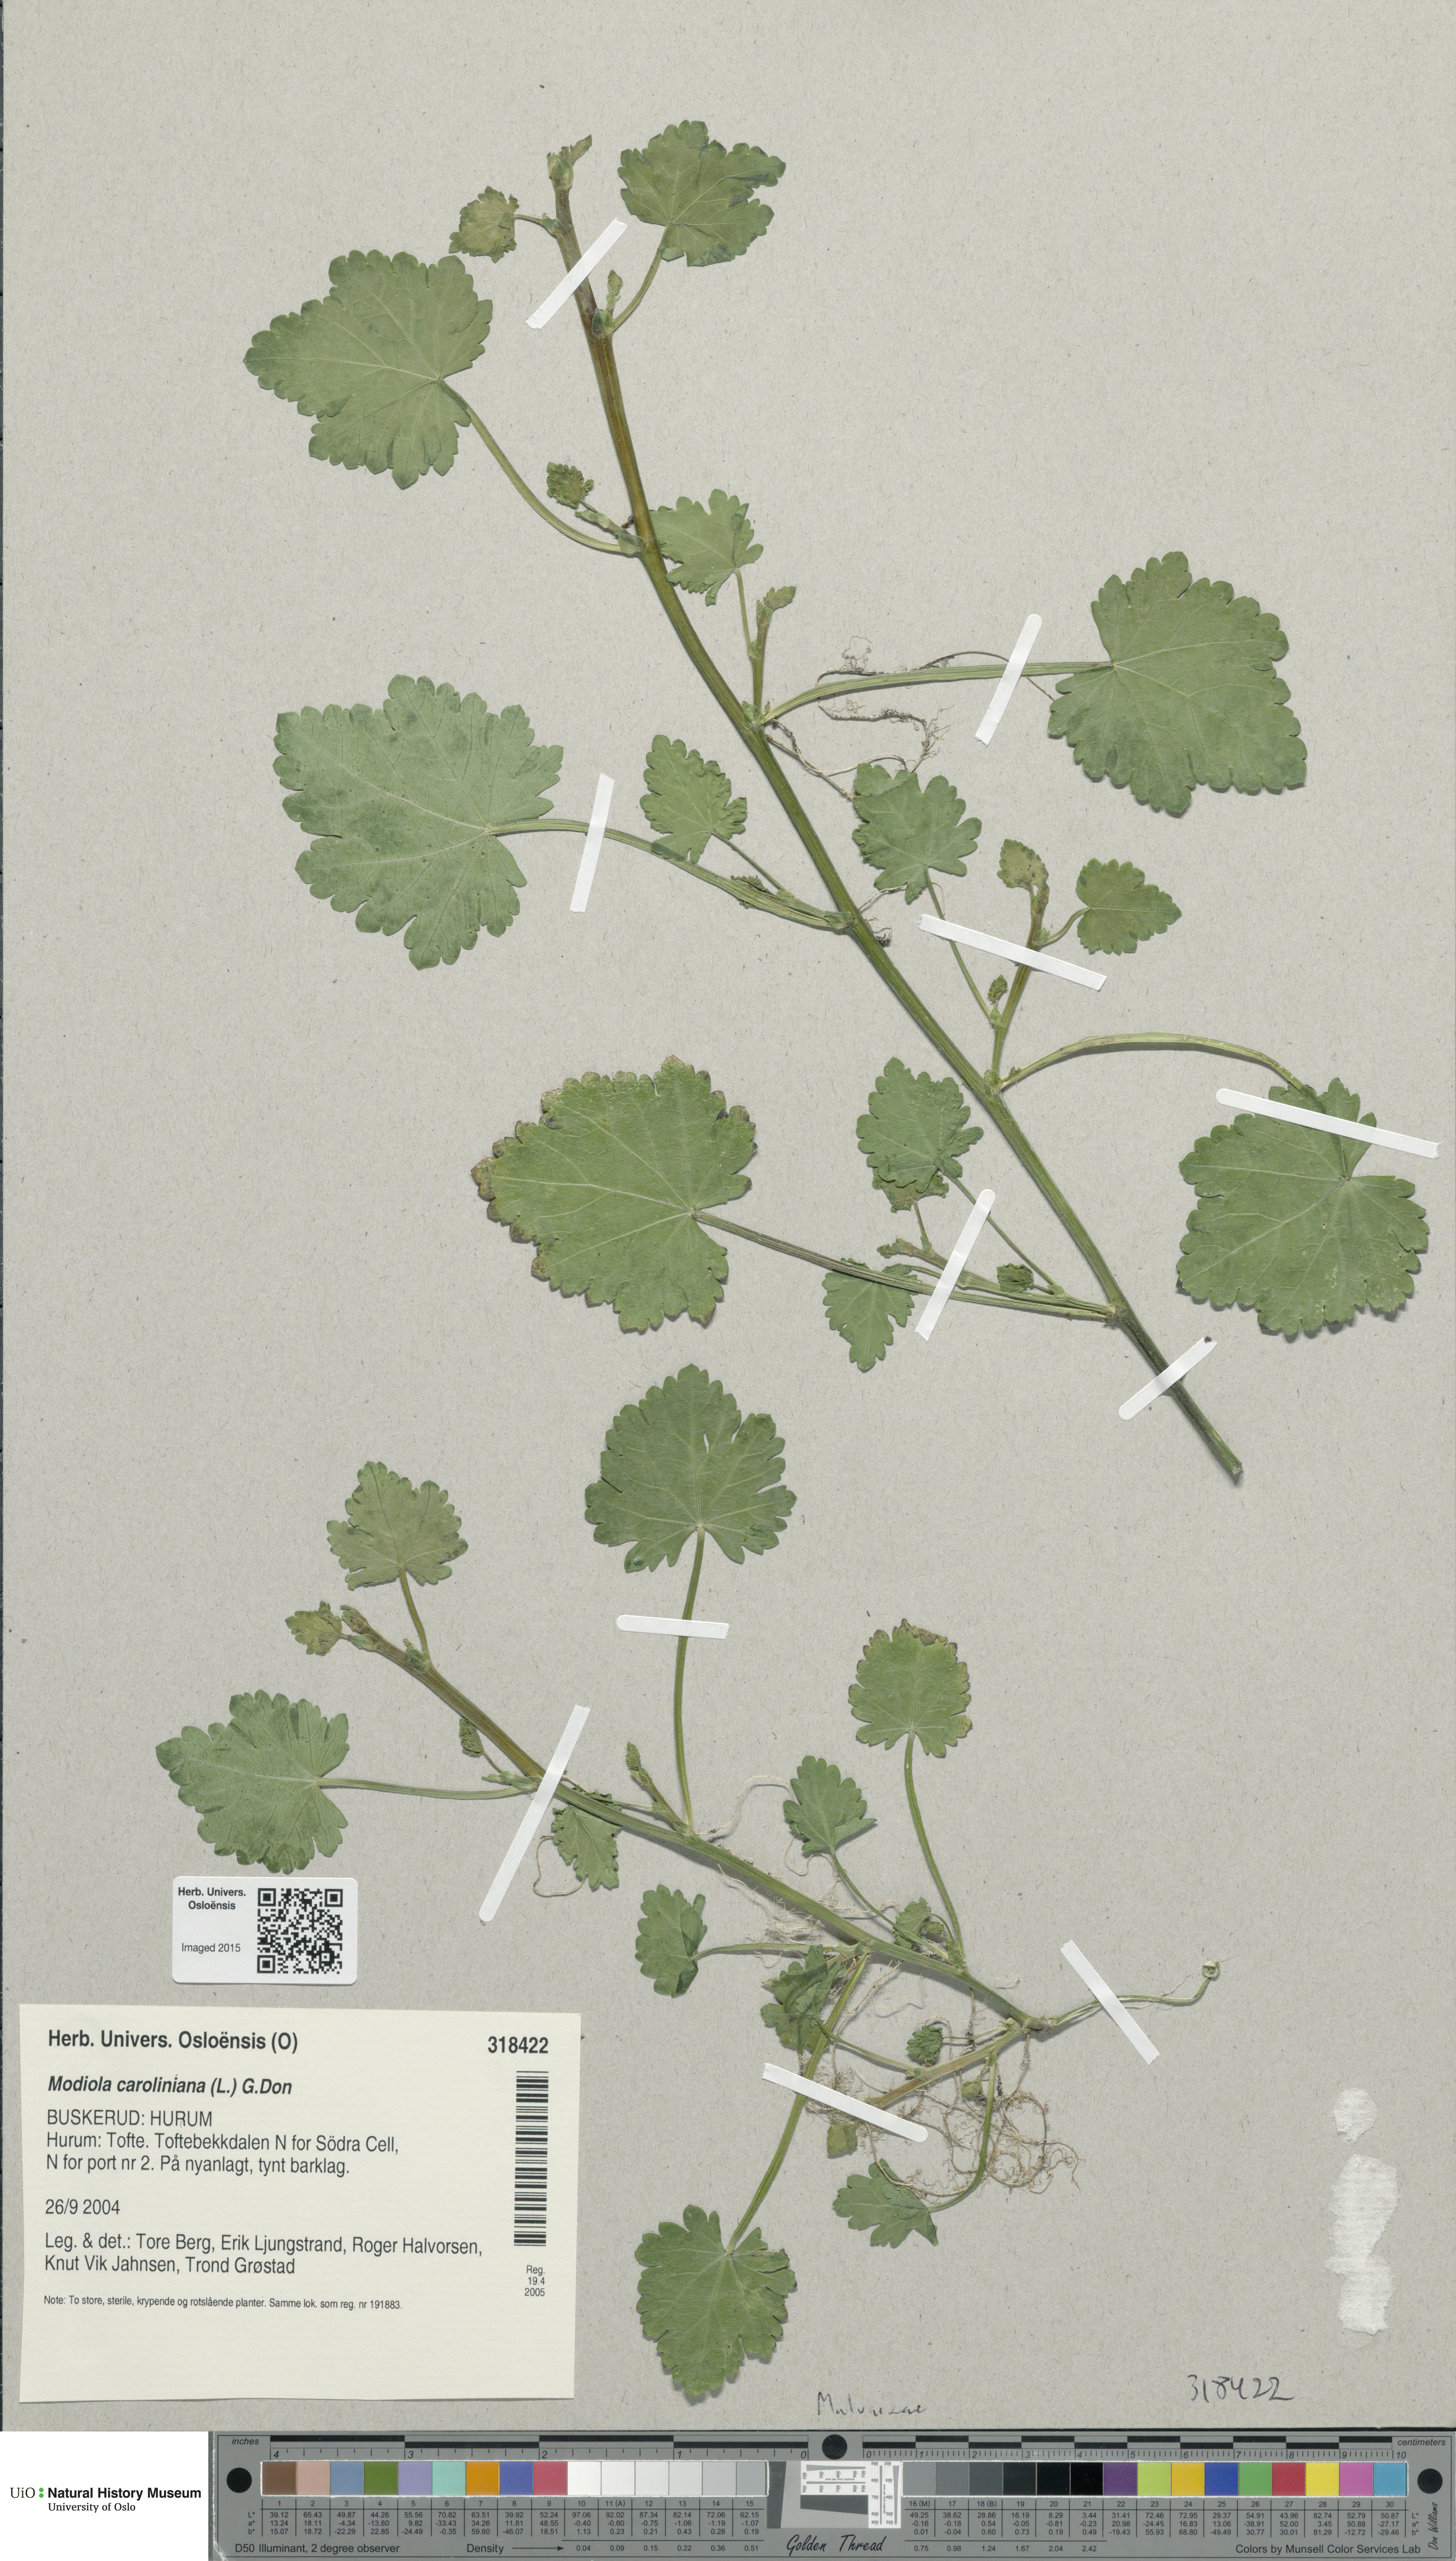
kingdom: Plantae
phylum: Tracheophyta
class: Magnoliopsida
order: Malvales
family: Malvaceae
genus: Modiola
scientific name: Modiola caroliniana
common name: Carolina bristlemallow
